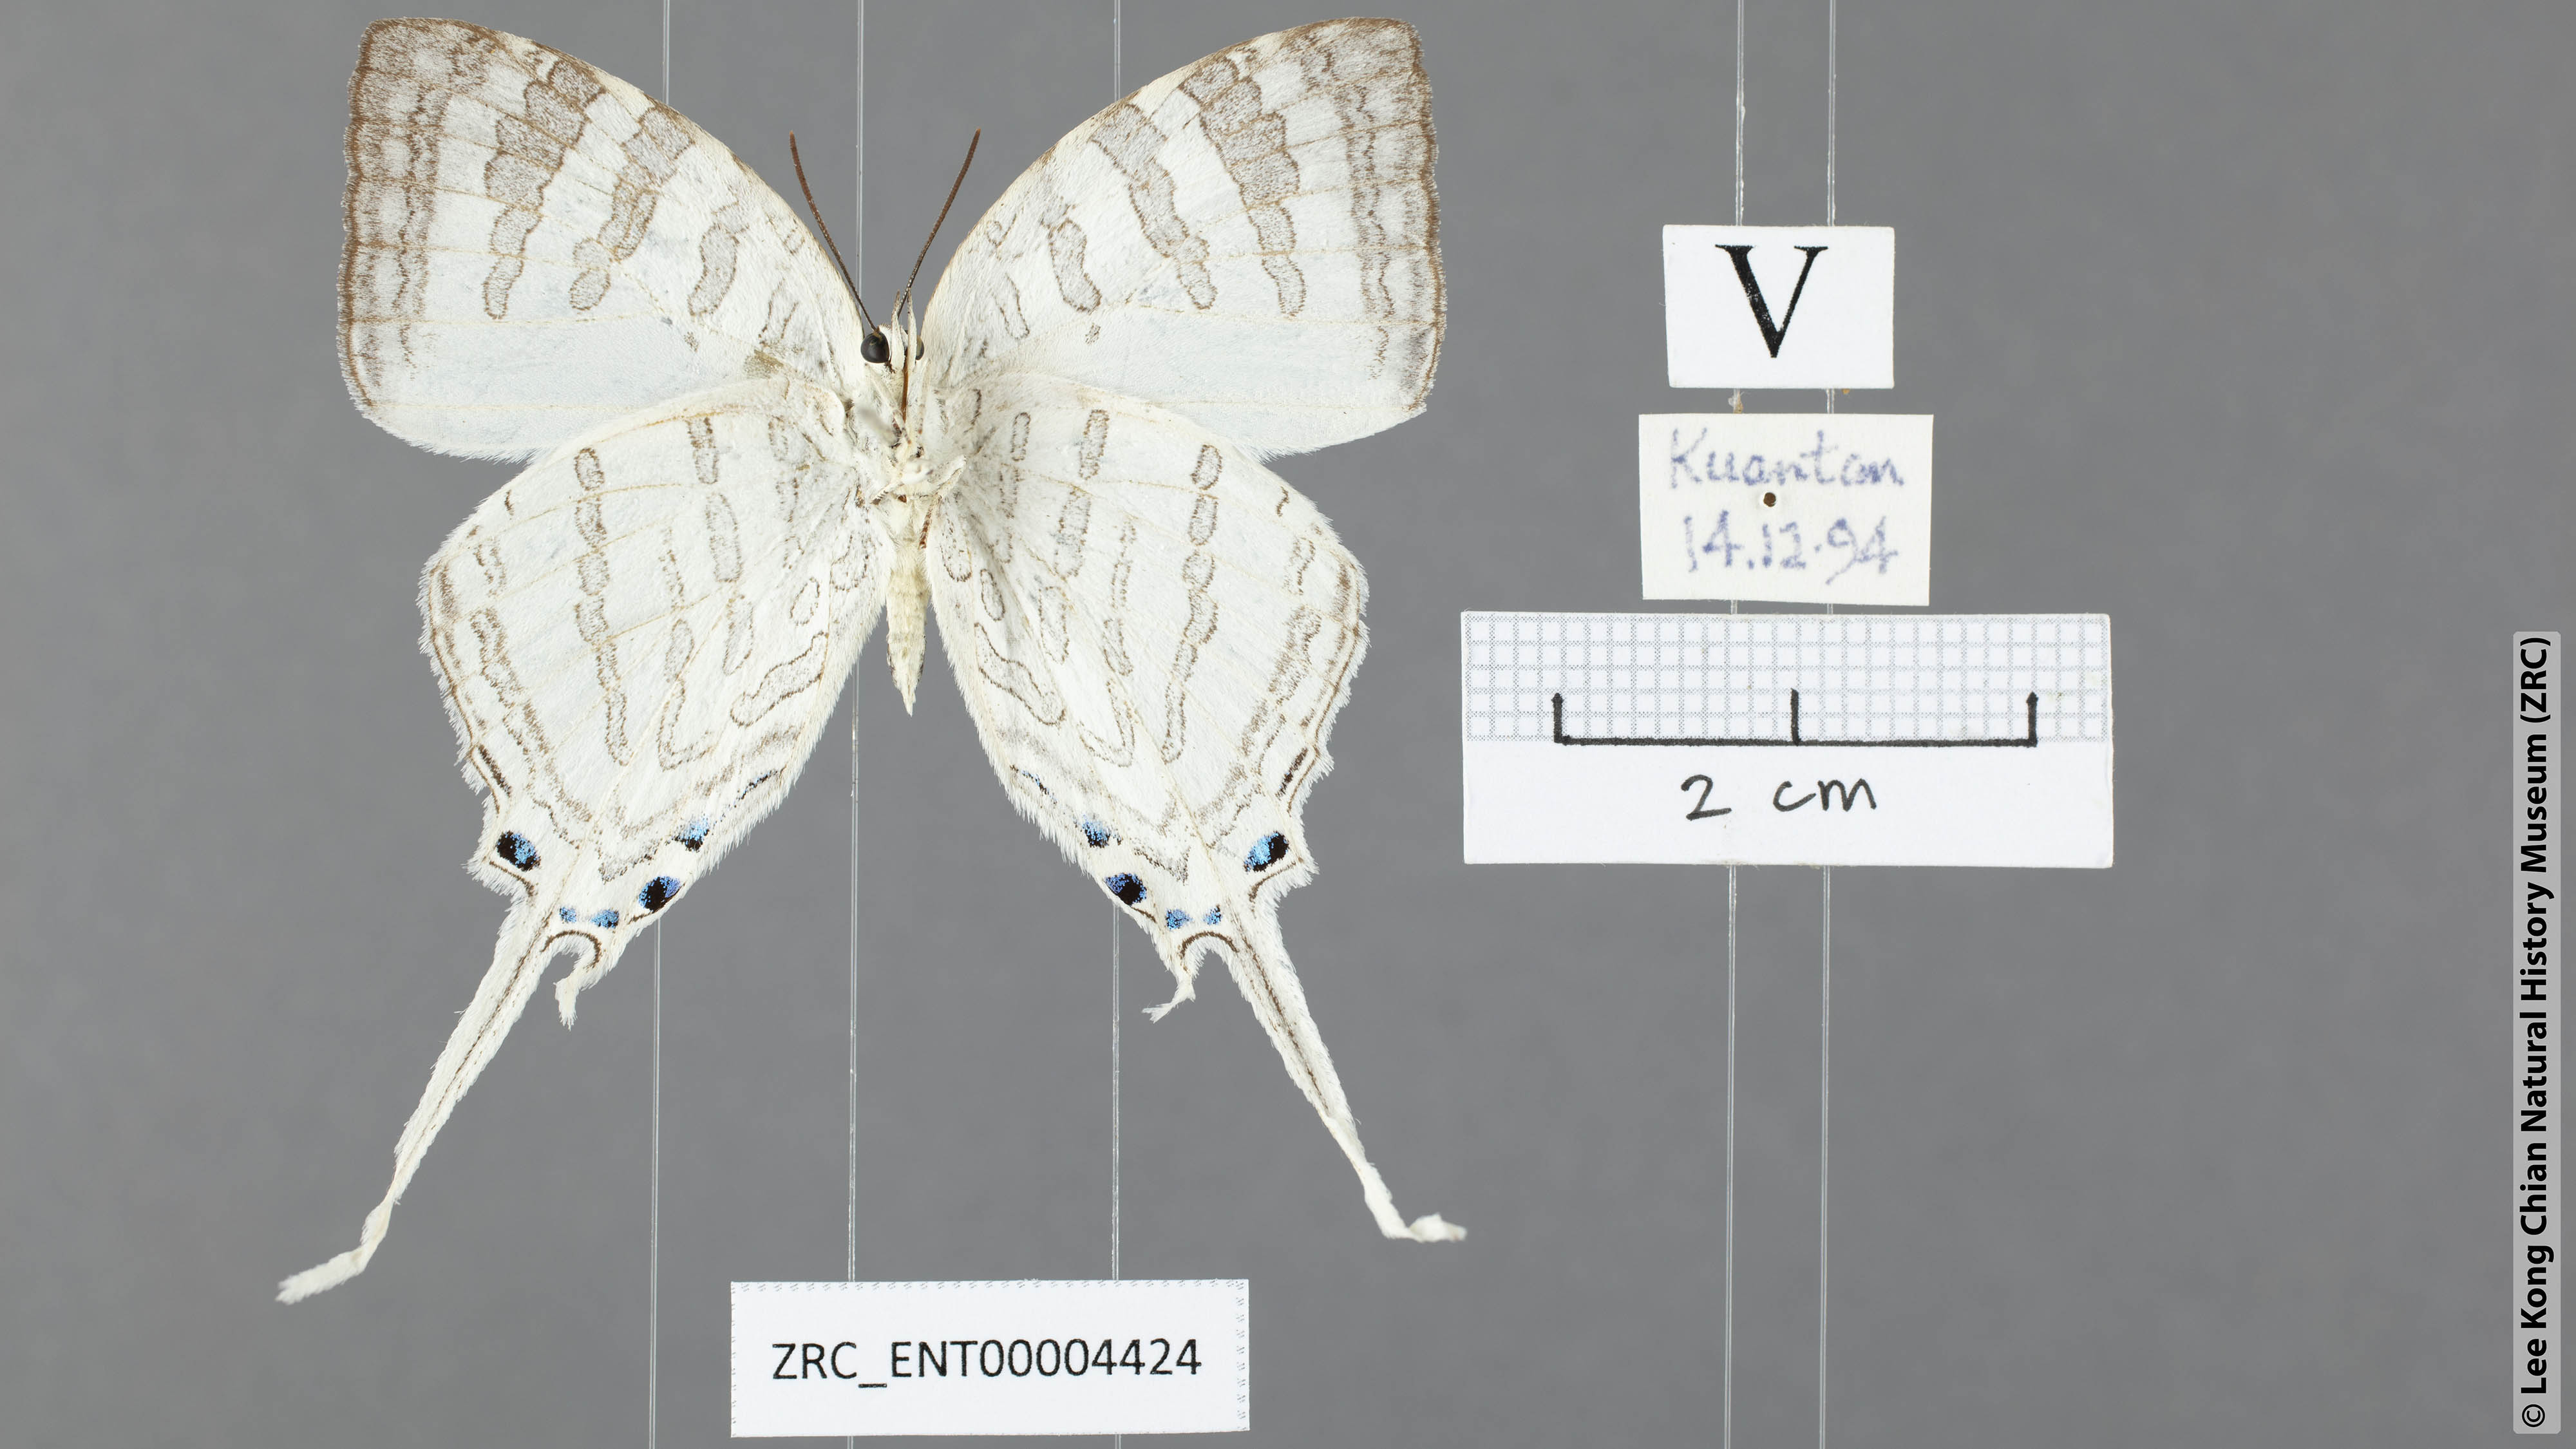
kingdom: Animalia
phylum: Arthropoda
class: Insecta
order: Lepidoptera
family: Lycaenidae
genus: Neomyrina
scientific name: Neomyrina nivea
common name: White imperial butterfly
